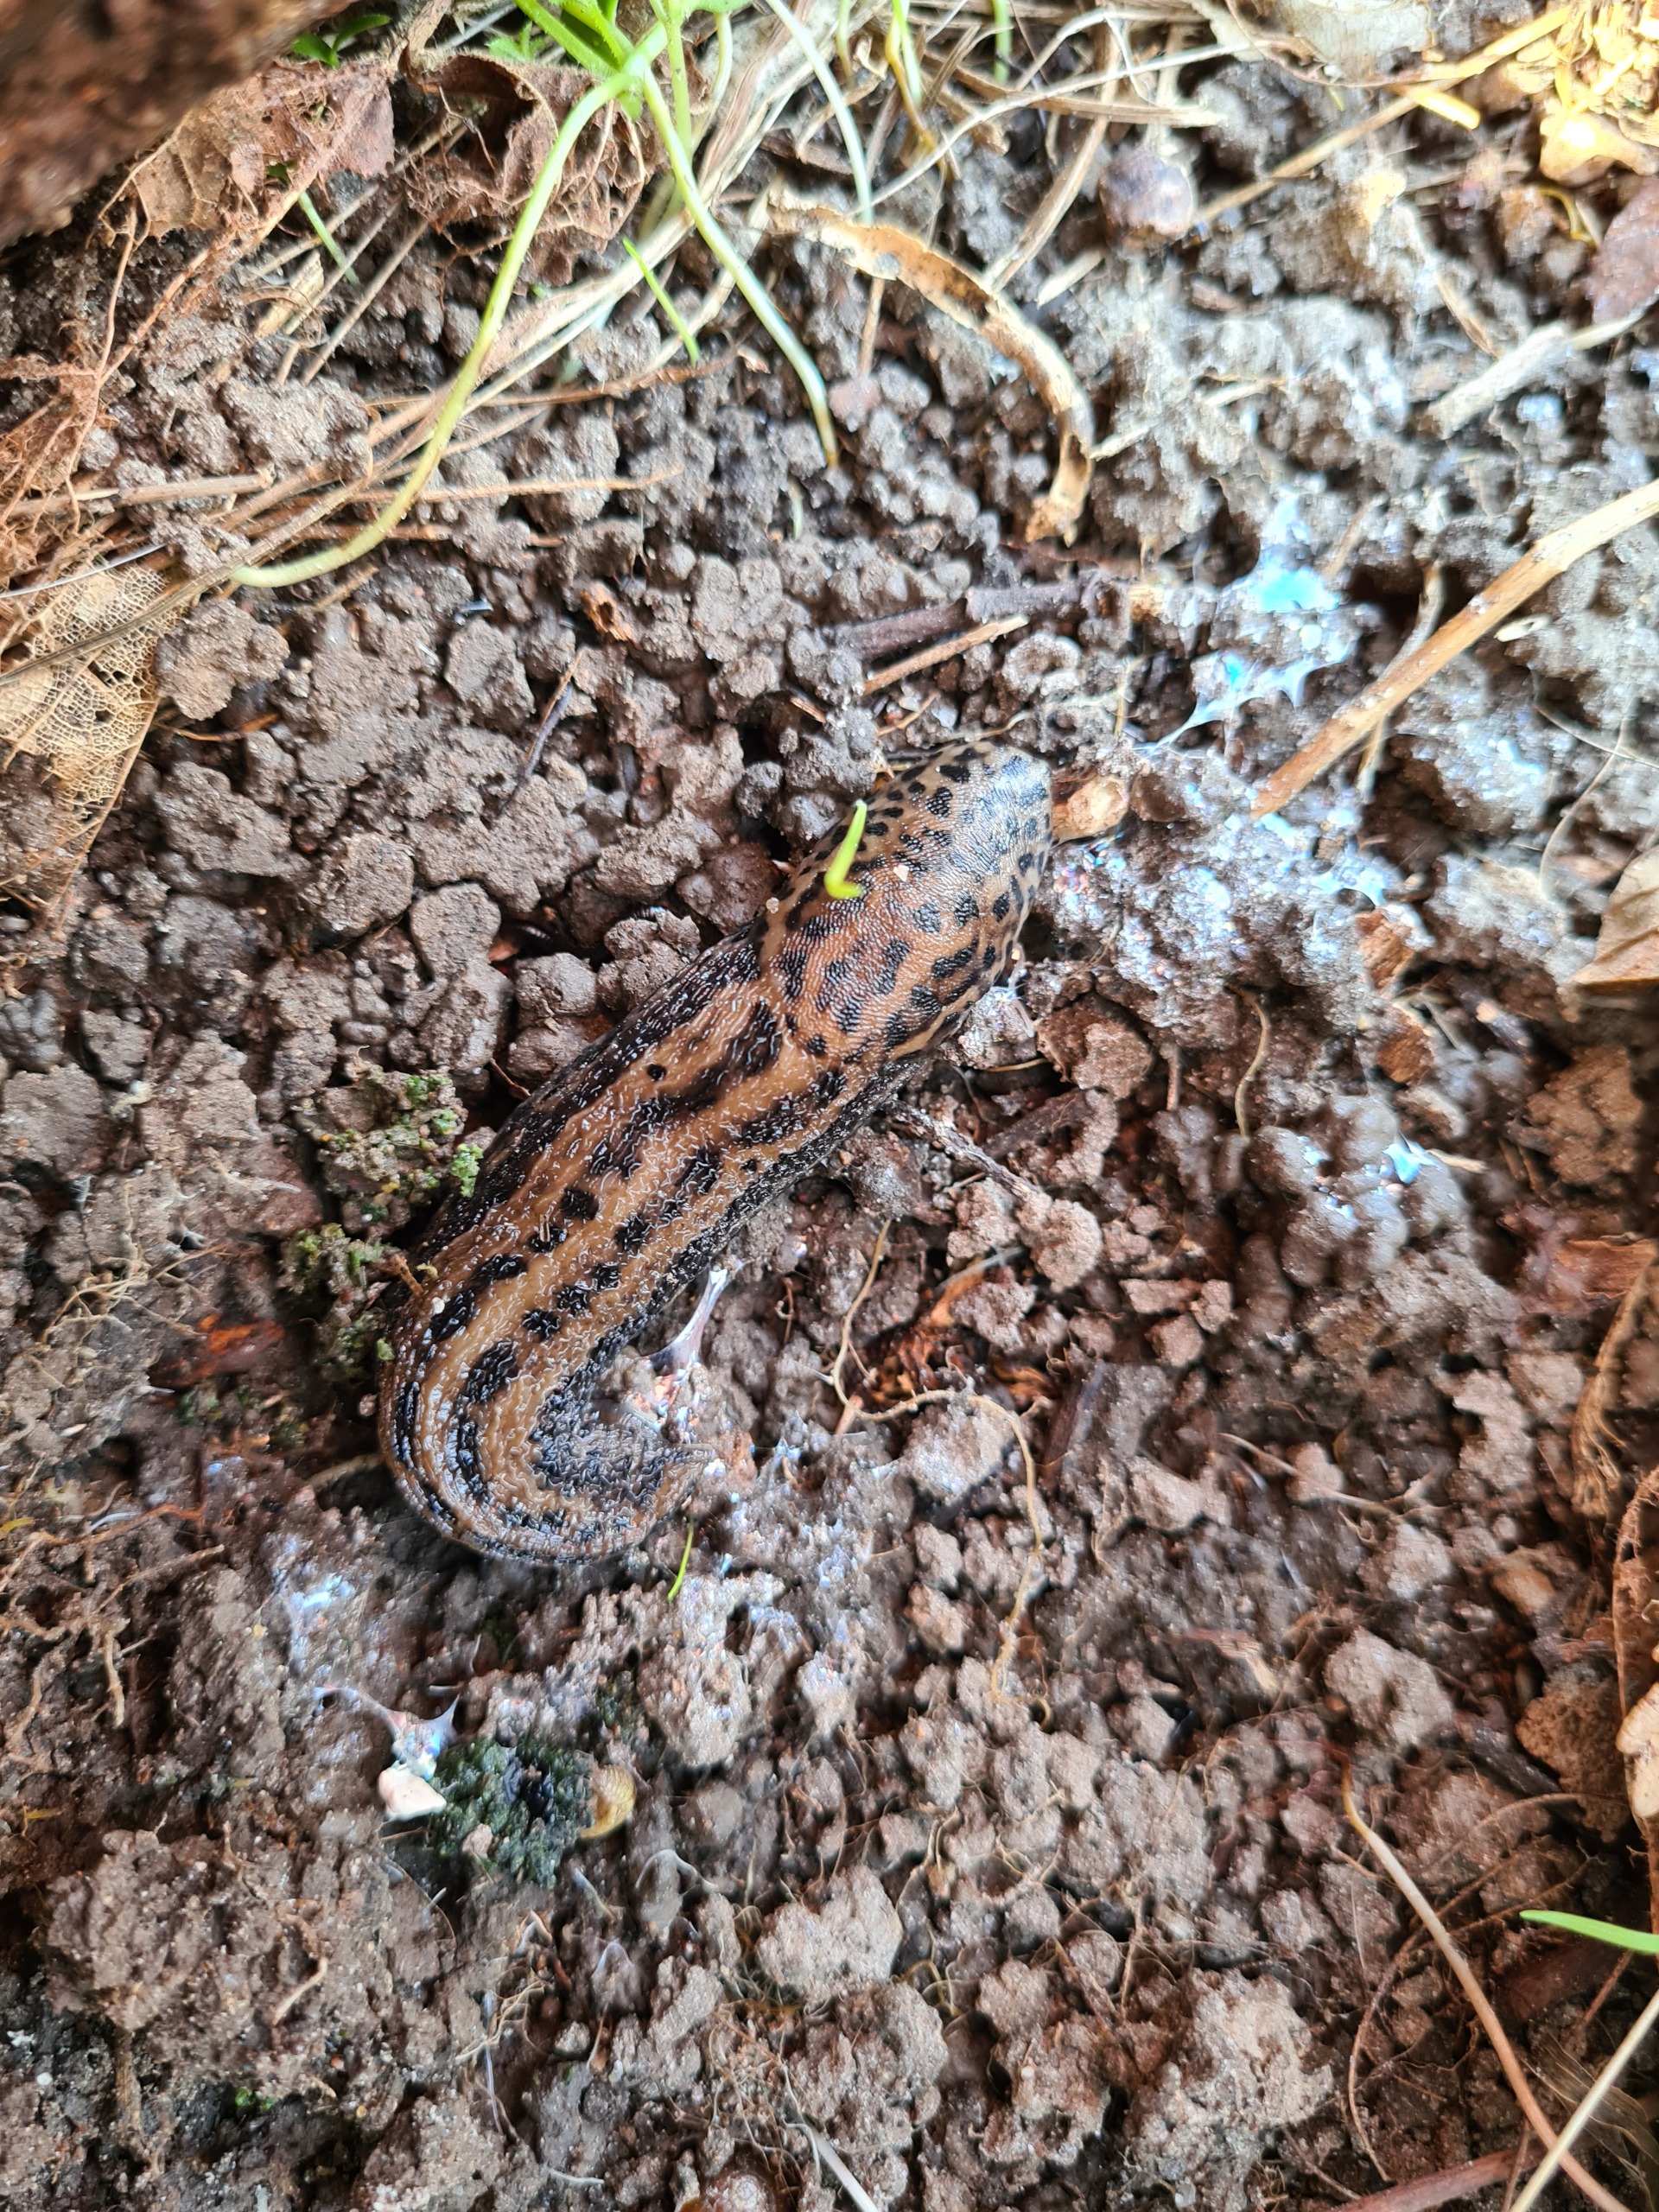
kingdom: Animalia
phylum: Mollusca
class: Gastropoda
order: Stylommatophora
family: Limacidae
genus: Limax
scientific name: Limax maximus
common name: Pantersnegl
